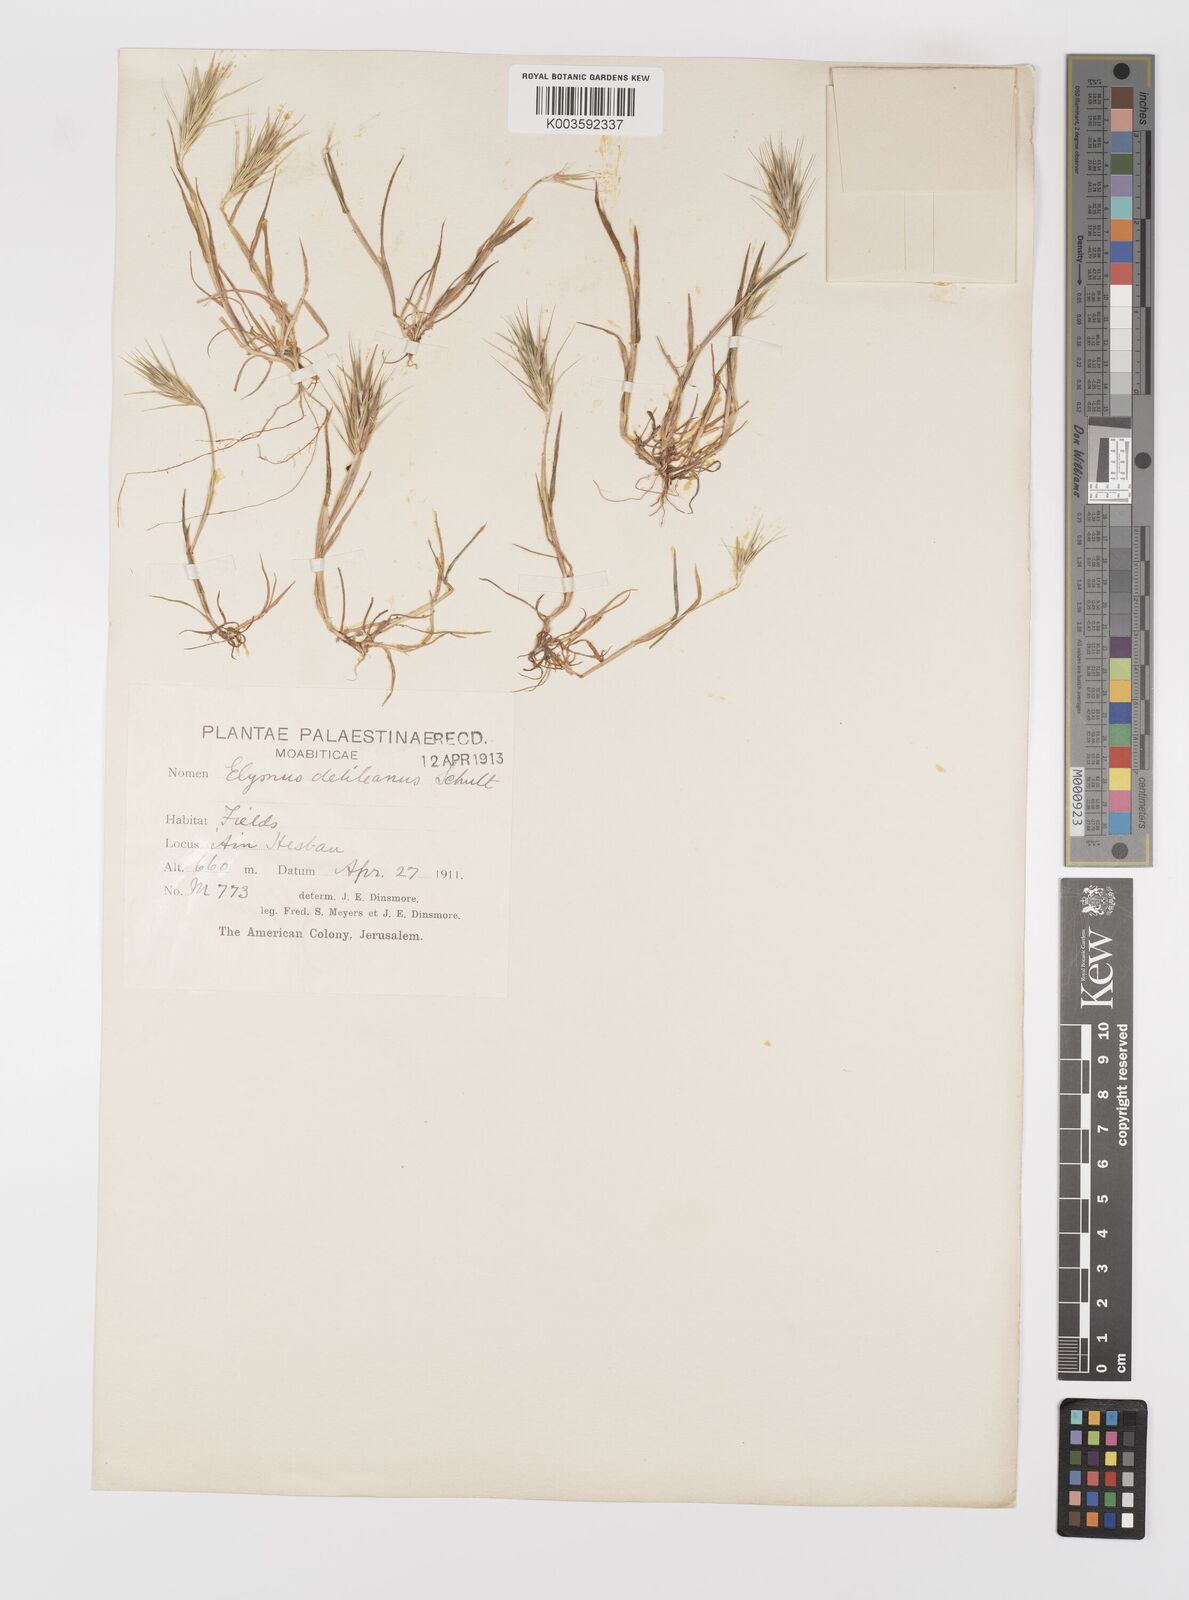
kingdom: Plantae
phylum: Tracheophyta
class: Liliopsida
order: Poales
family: Poaceae
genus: Crithopsis
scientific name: Crithopsis delileana
